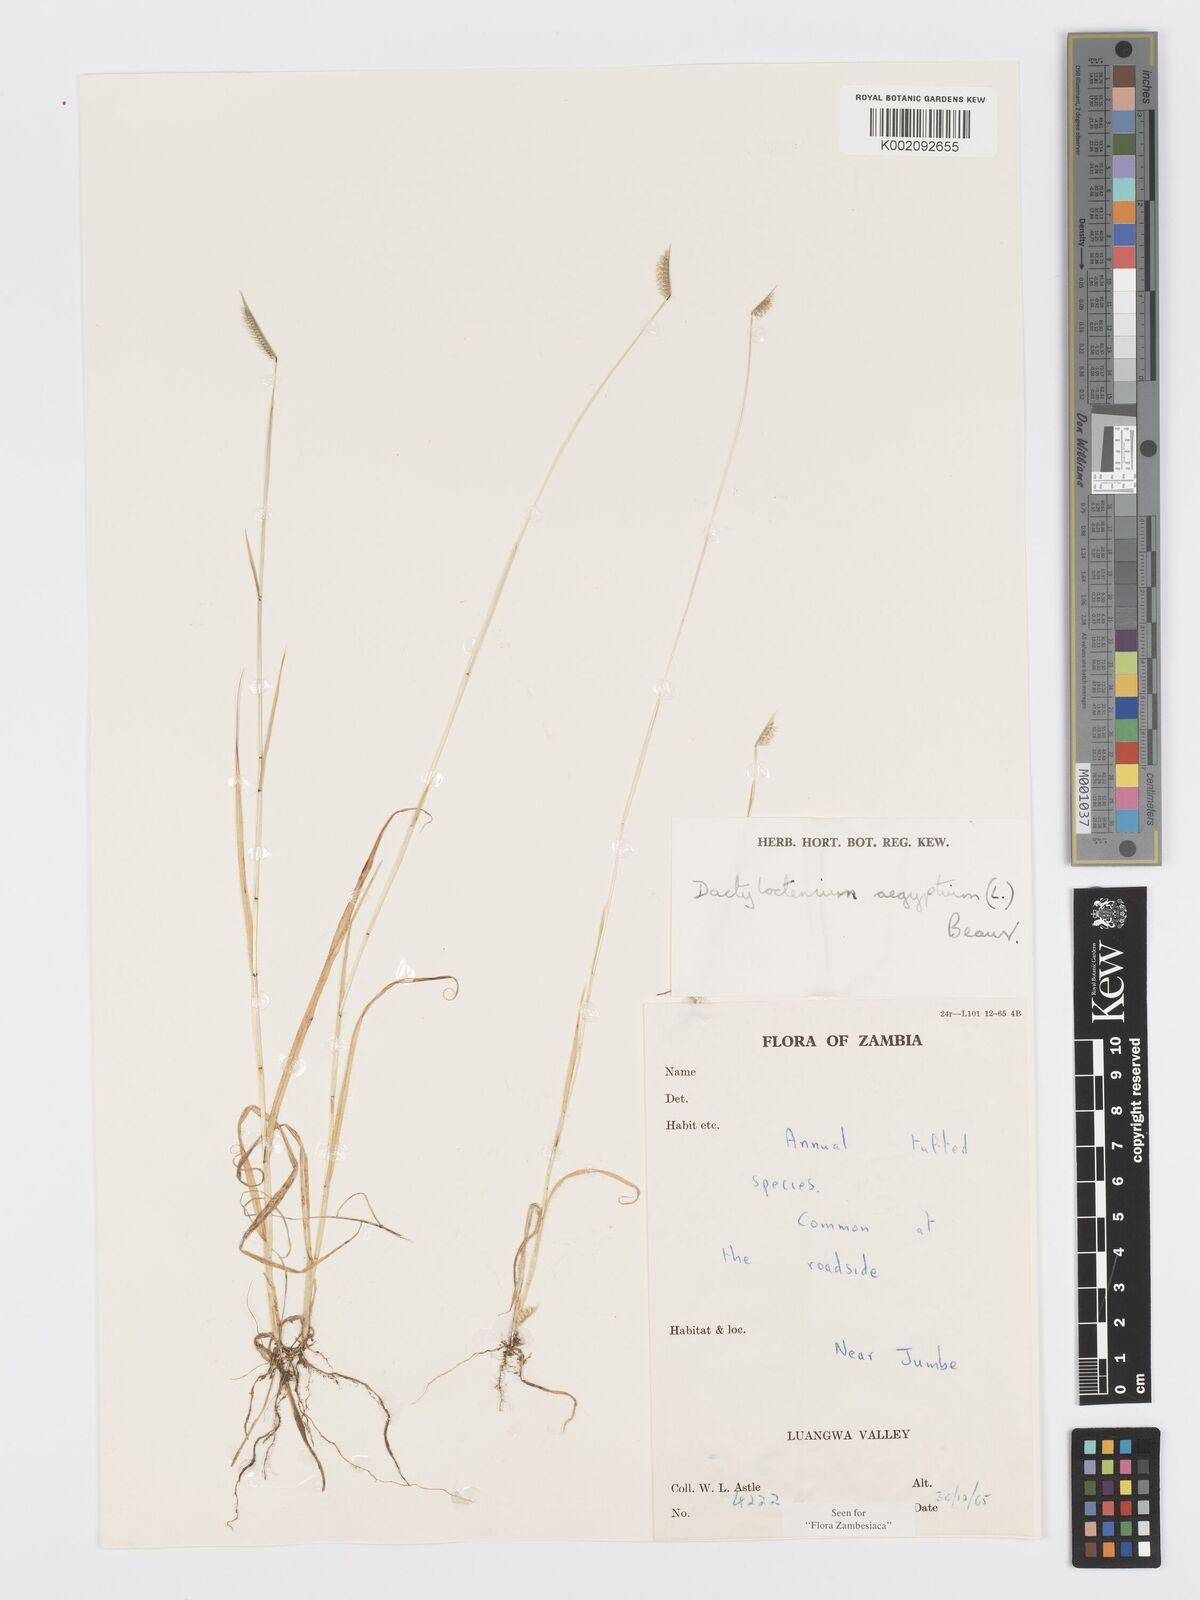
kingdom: Plantae
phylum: Tracheophyta
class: Liliopsida
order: Poales
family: Poaceae
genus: Dactyloctenium
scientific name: Dactyloctenium giganteum
